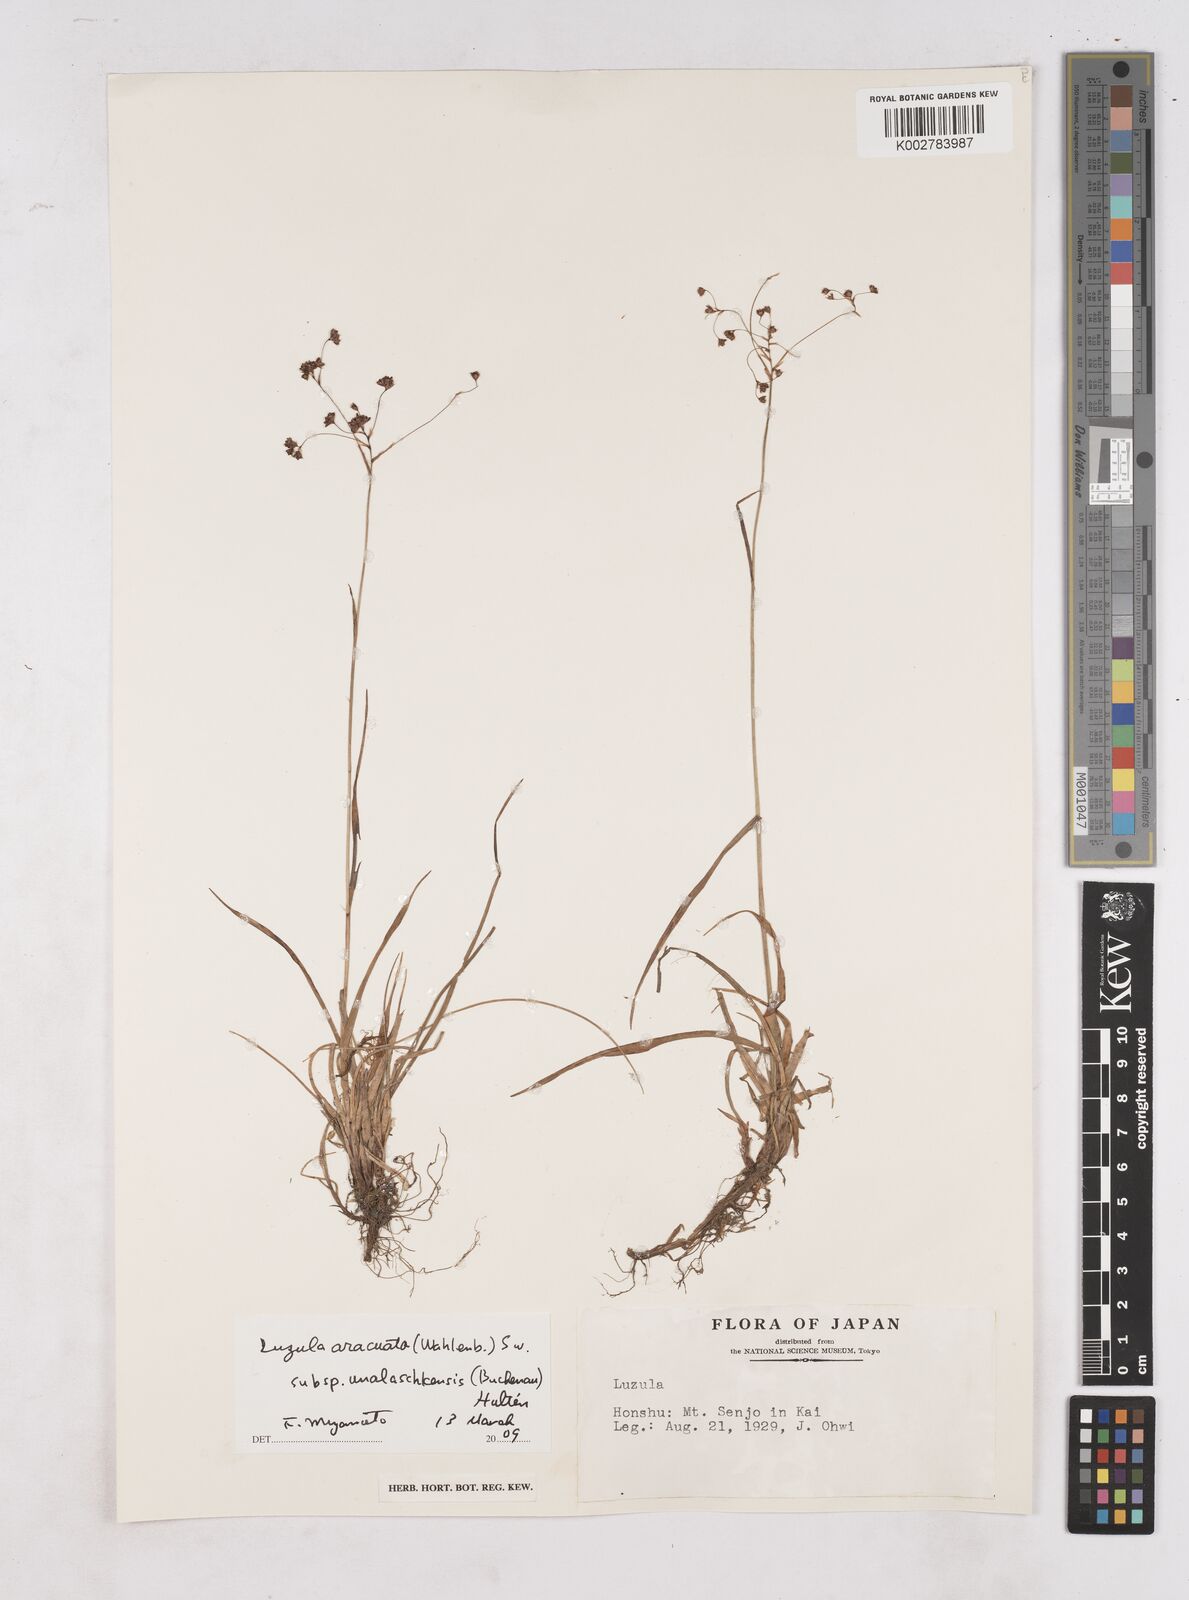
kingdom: Plantae
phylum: Tracheophyta
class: Liliopsida
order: Poales
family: Juncaceae
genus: Luzula
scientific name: Luzula arcuata
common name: Curved wood-rush
